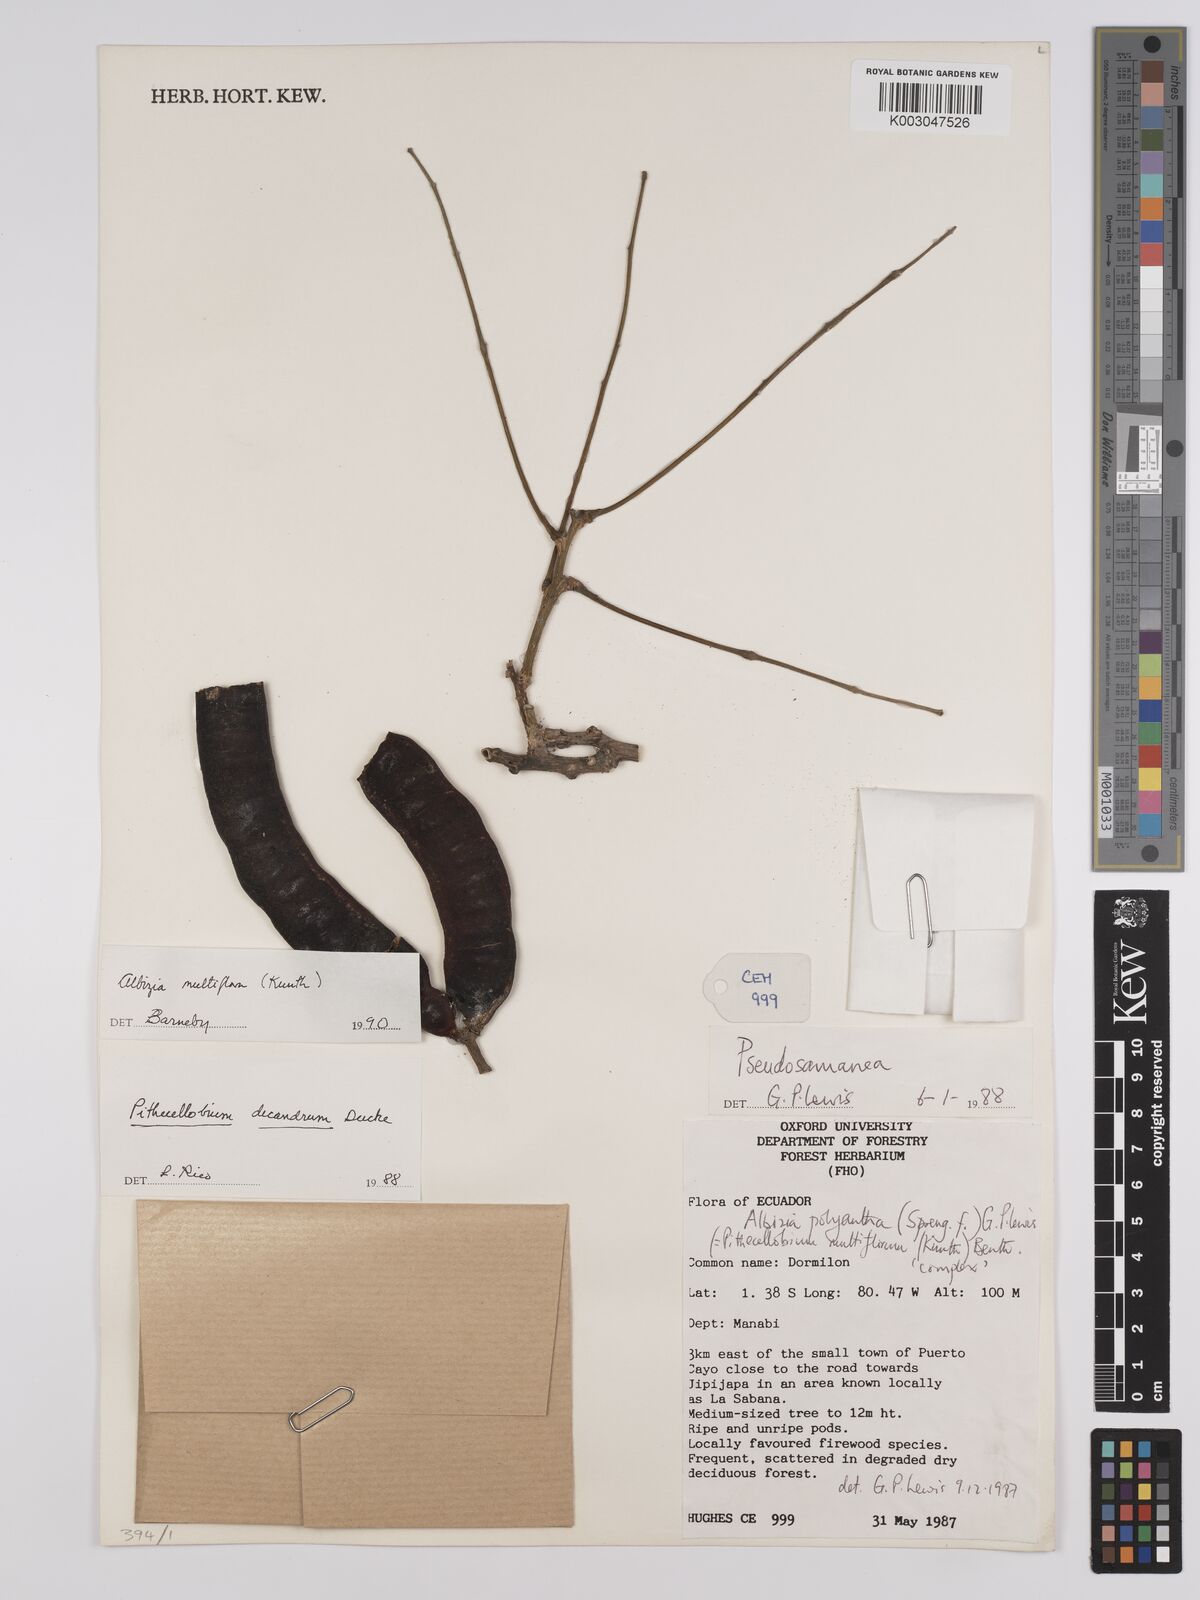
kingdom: Plantae
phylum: Tracheophyta
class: Magnoliopsida
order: Fabales
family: Fabaceae
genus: Albizia
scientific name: Albizia multiflora
